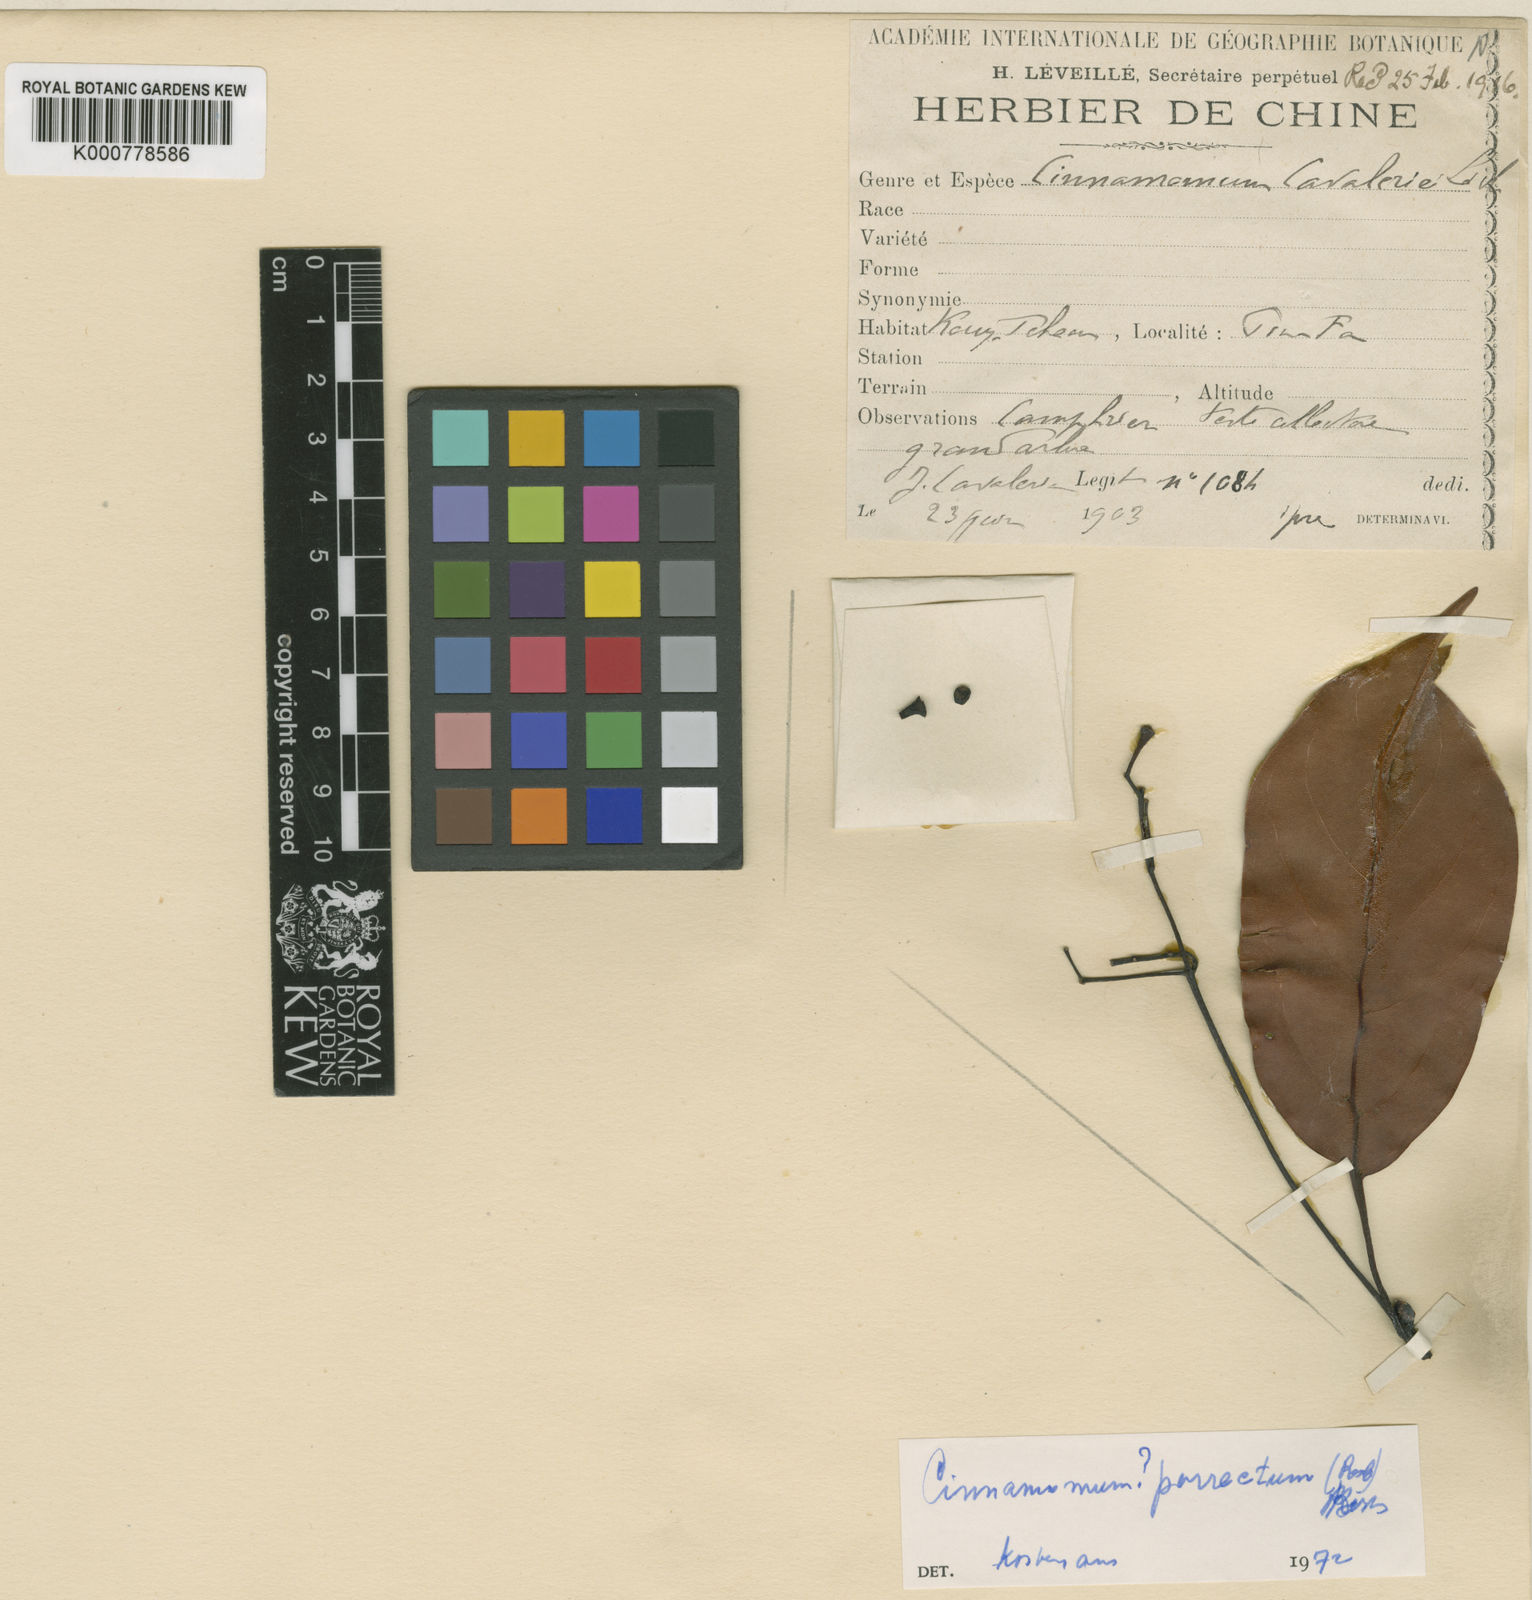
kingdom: Plantae
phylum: Tracheophyta
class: Magnoliopsida
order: Laurales
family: Lauraceae
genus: Cinnamomum
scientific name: Cinnamomum
